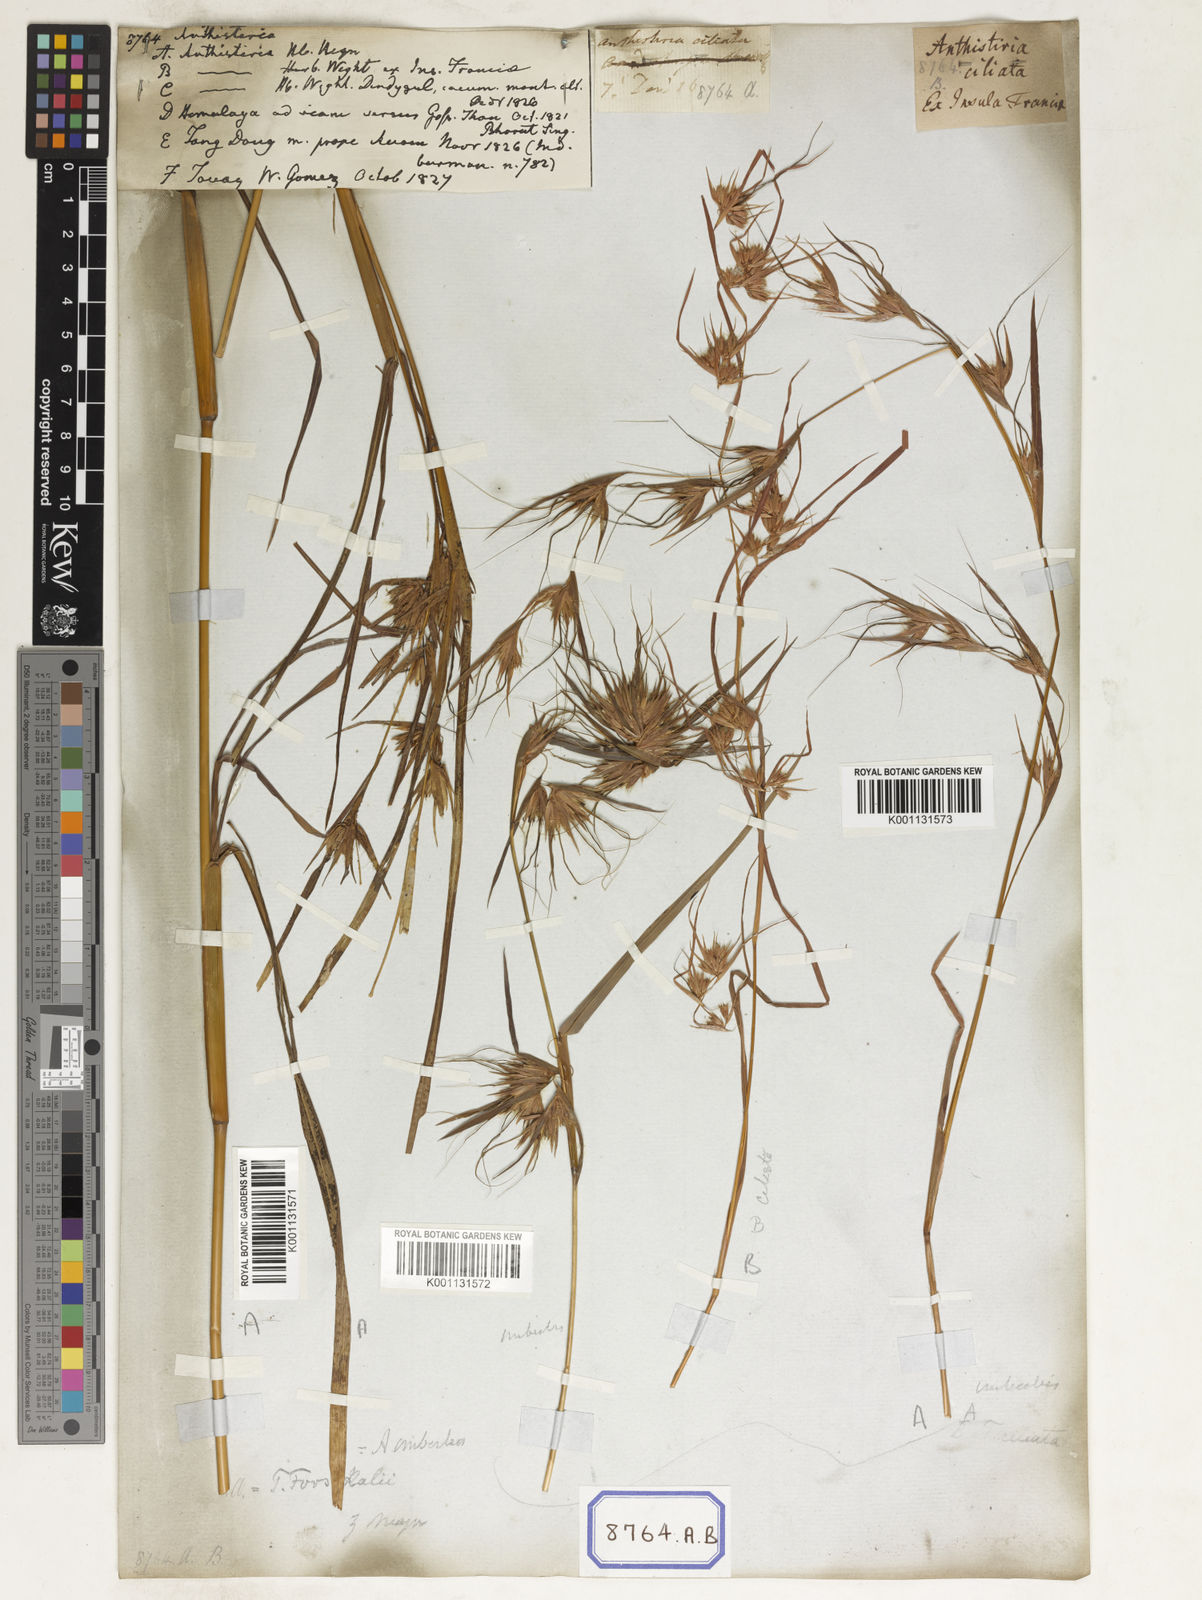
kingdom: Plantae
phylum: Tracheophyta
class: Liliopsida
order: Poales
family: Poaceae
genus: Themeda
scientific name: Themeda
